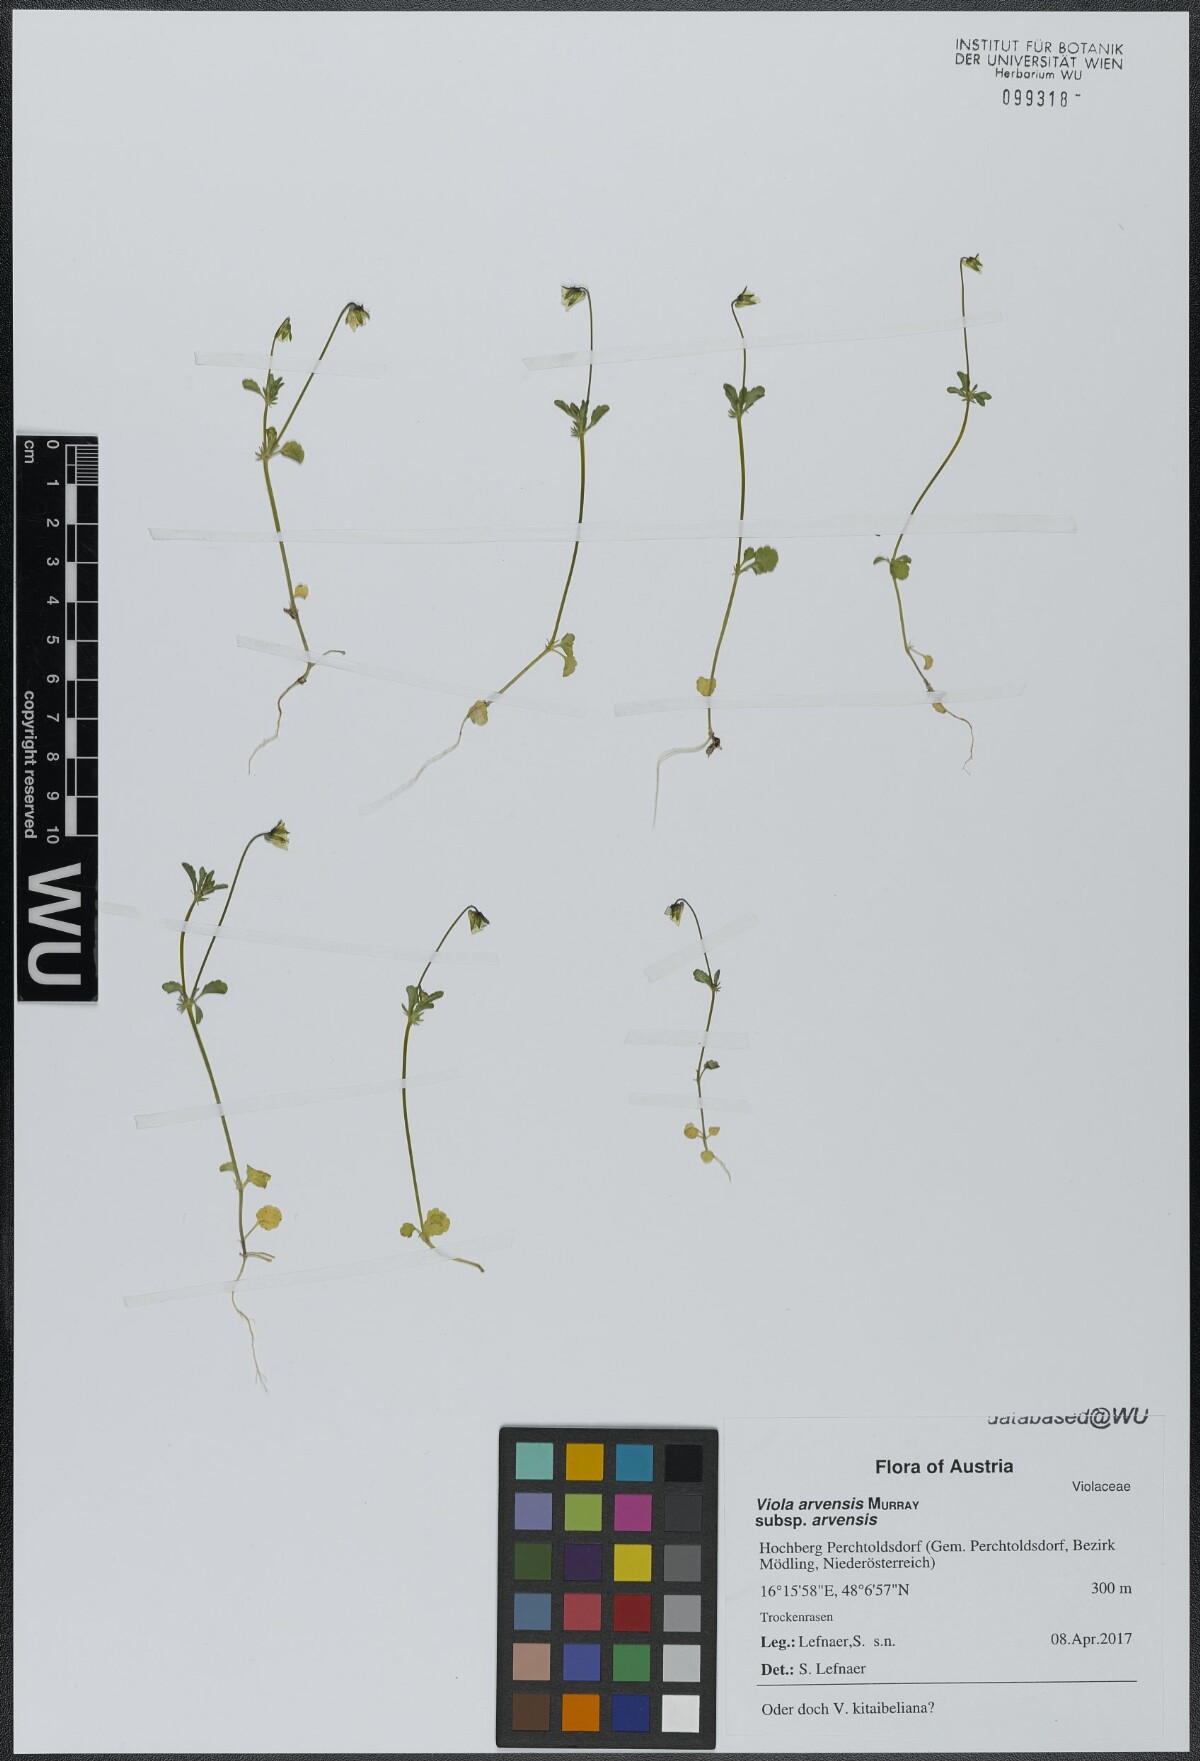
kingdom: Plantae
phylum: Tracheophyta
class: Magnoliopsida
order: Malpighiales
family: Violaceae
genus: Viola
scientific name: Viola arvensis
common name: Field pansy
